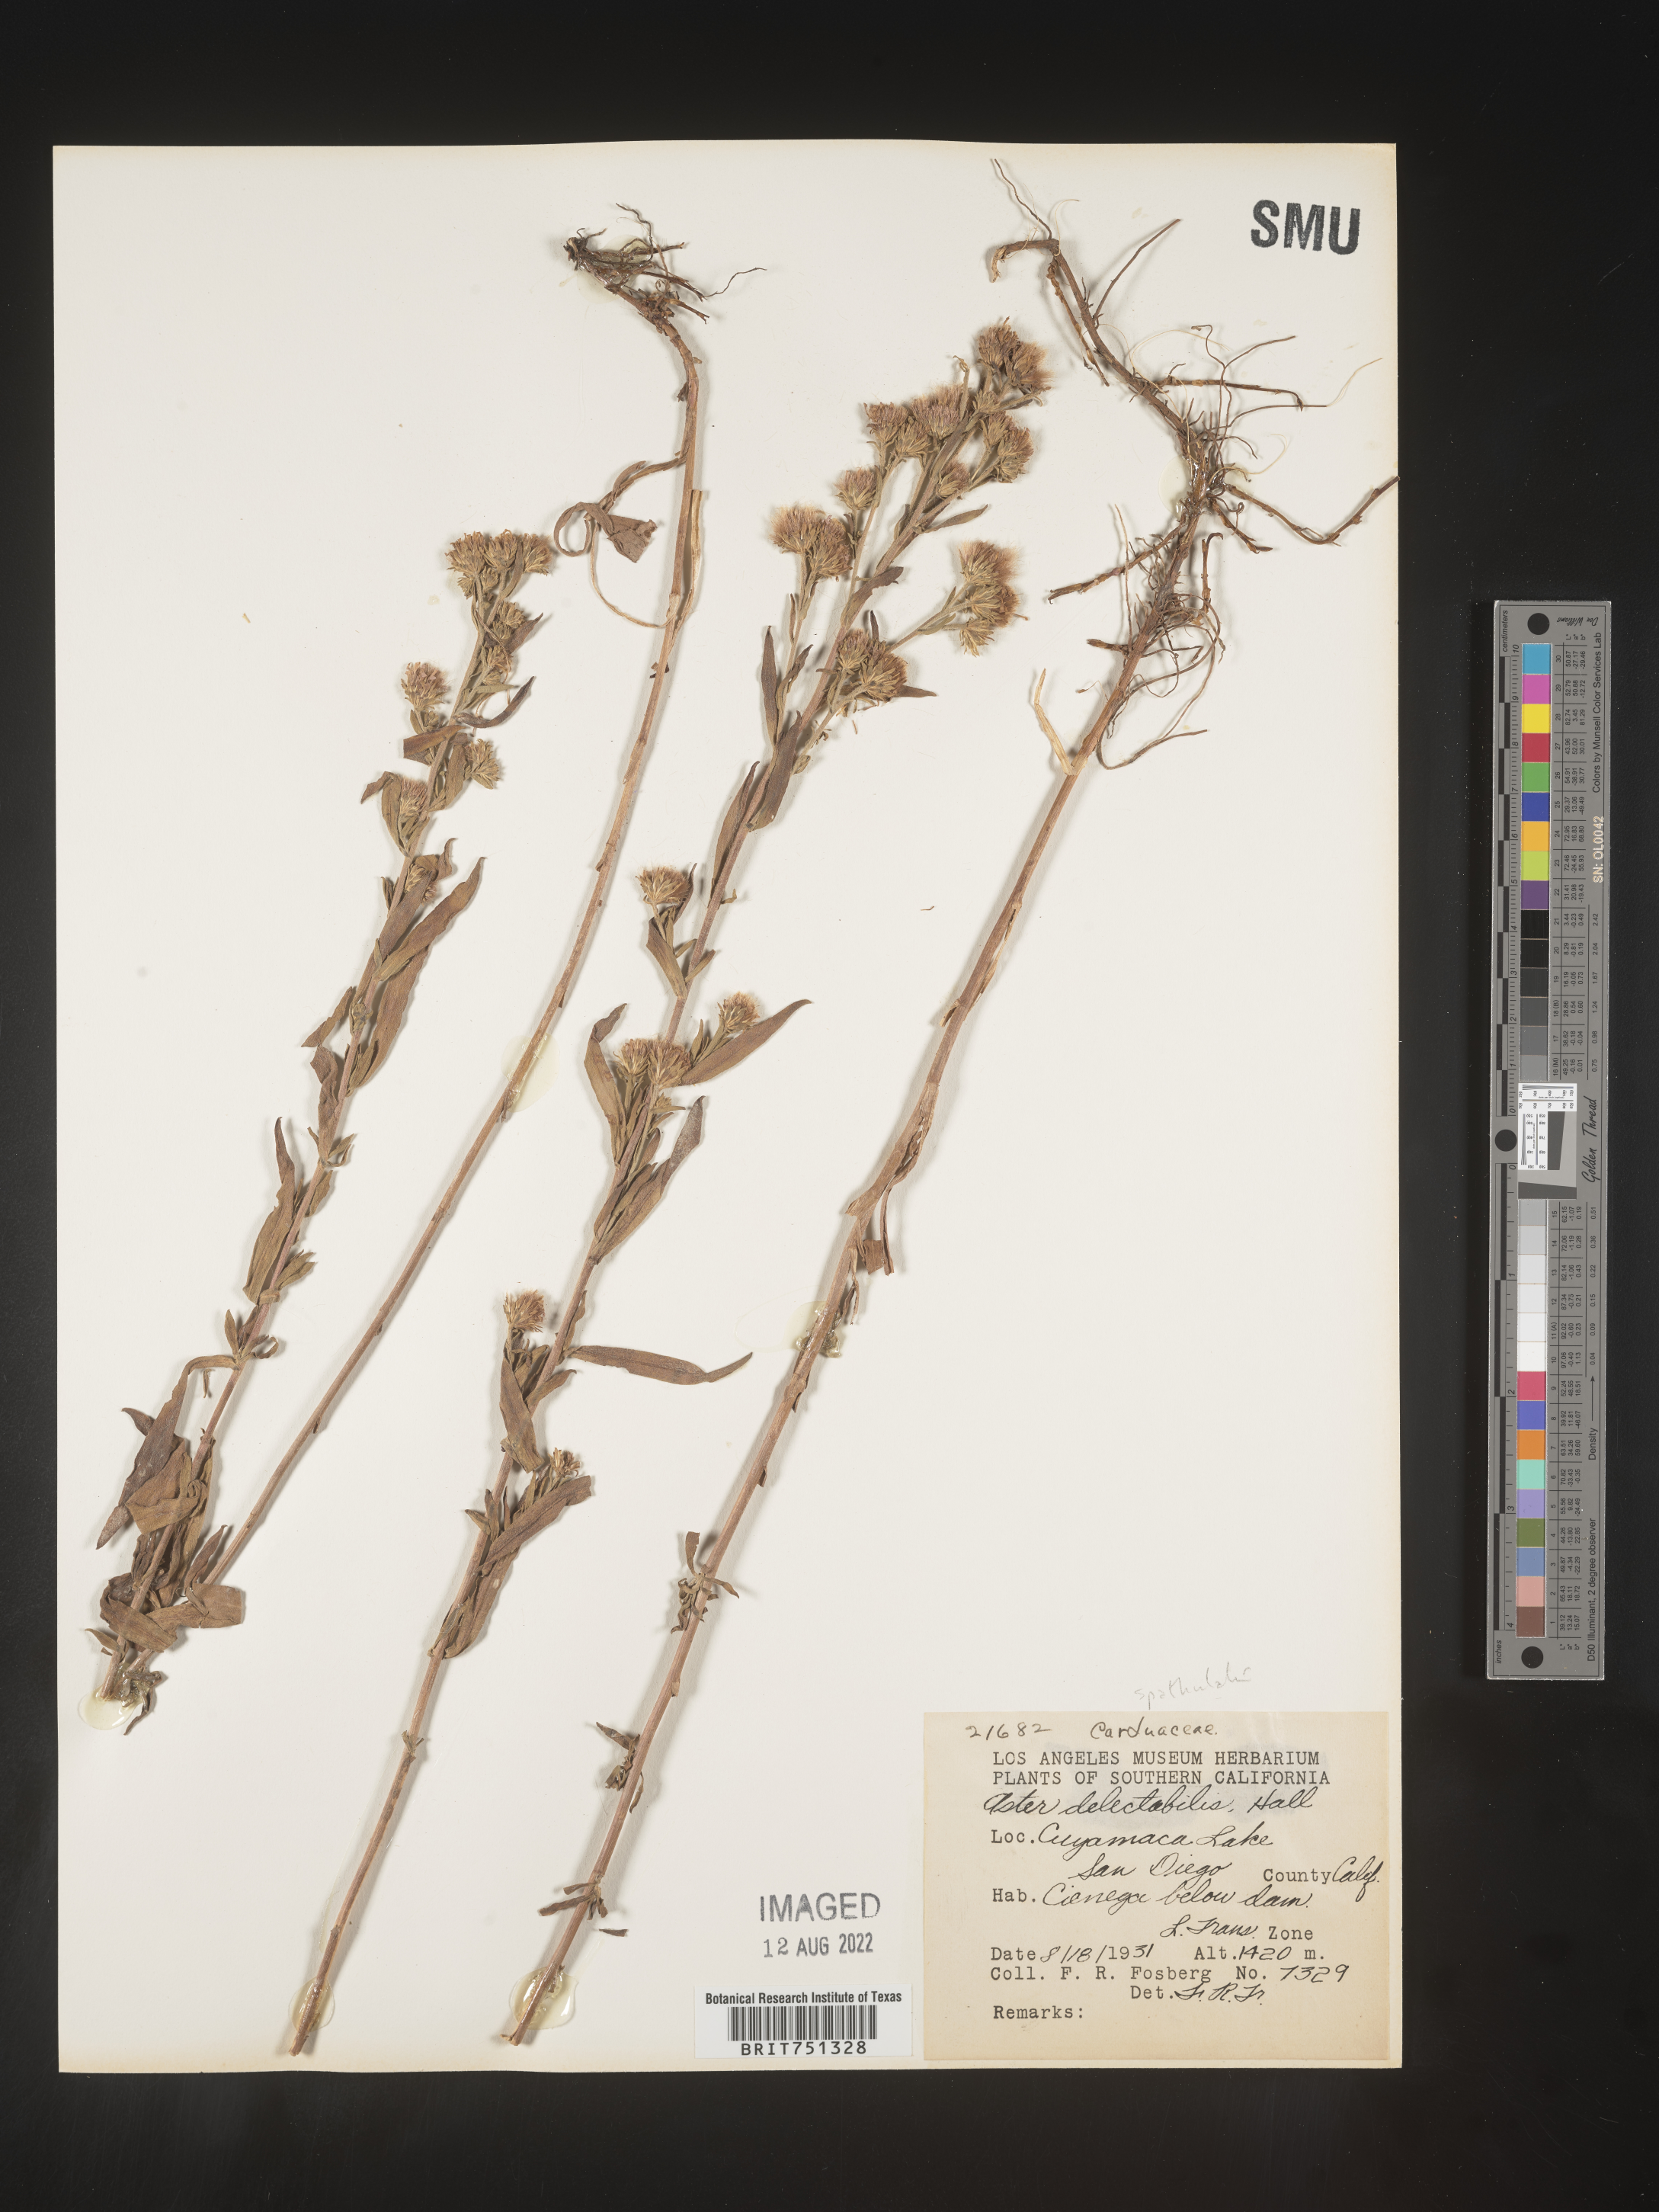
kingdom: Plantae
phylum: Tracheophyta
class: Magnoliopsida
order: Asterales
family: Asteraceae
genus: Symphyotrichum
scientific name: Symphyotrichum spathulatum
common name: Western mountain aster
